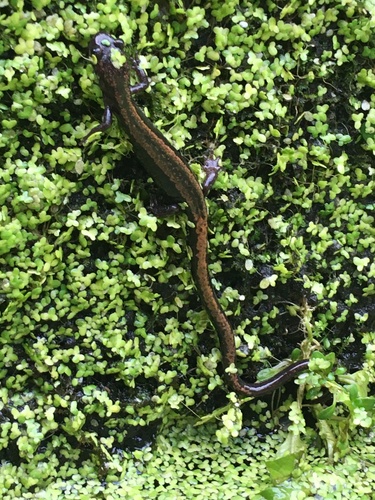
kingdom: Animalia
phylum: Chordata
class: Amphibia
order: Caudata
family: Salamandridae
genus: Chioglossa
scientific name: Chioglossa lusitanica
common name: Gold-striped salamander
